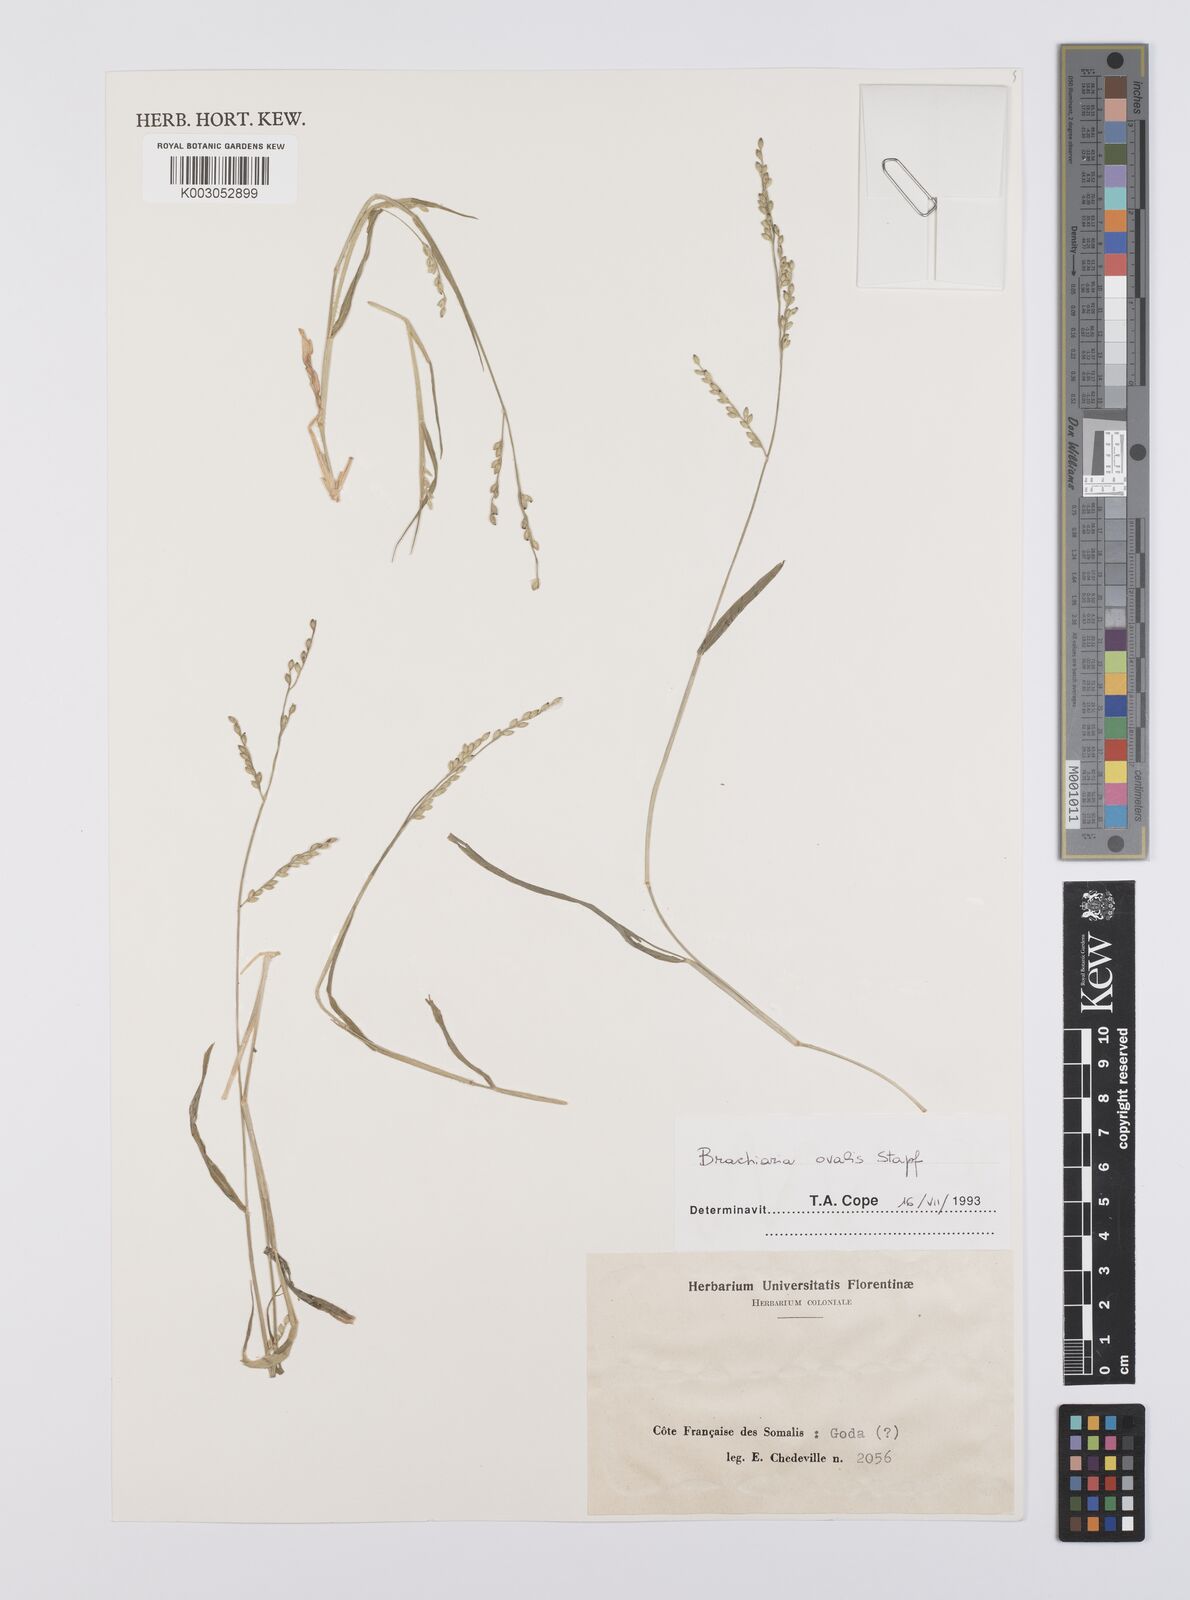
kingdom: Plantae
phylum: Tracheophyta
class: Liliopsida
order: Poales
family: Poaceae
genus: Urochloa
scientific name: Urochloa ovalis
